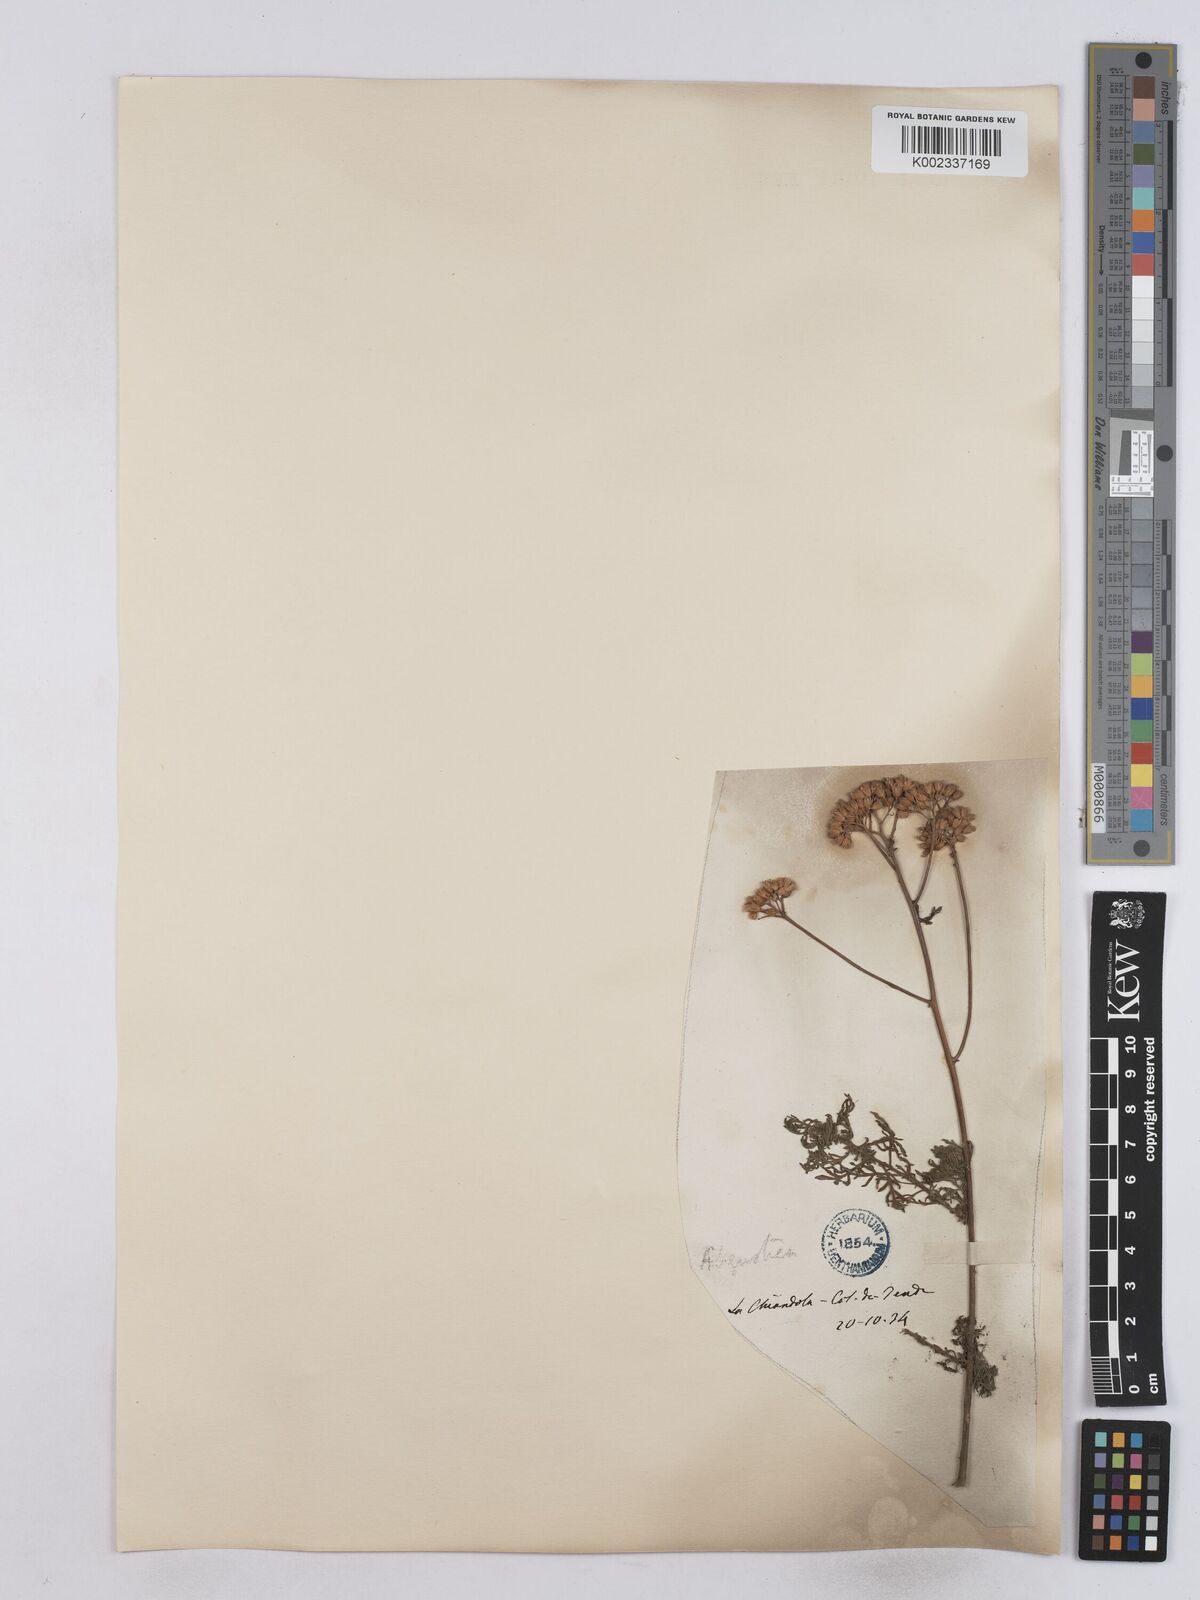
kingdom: Plantae
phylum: Tracheophyta
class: Magnoliopsida
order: Asterales
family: Asteraceae
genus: Achillea
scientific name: Achillea ligustica
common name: Southern yarrow
